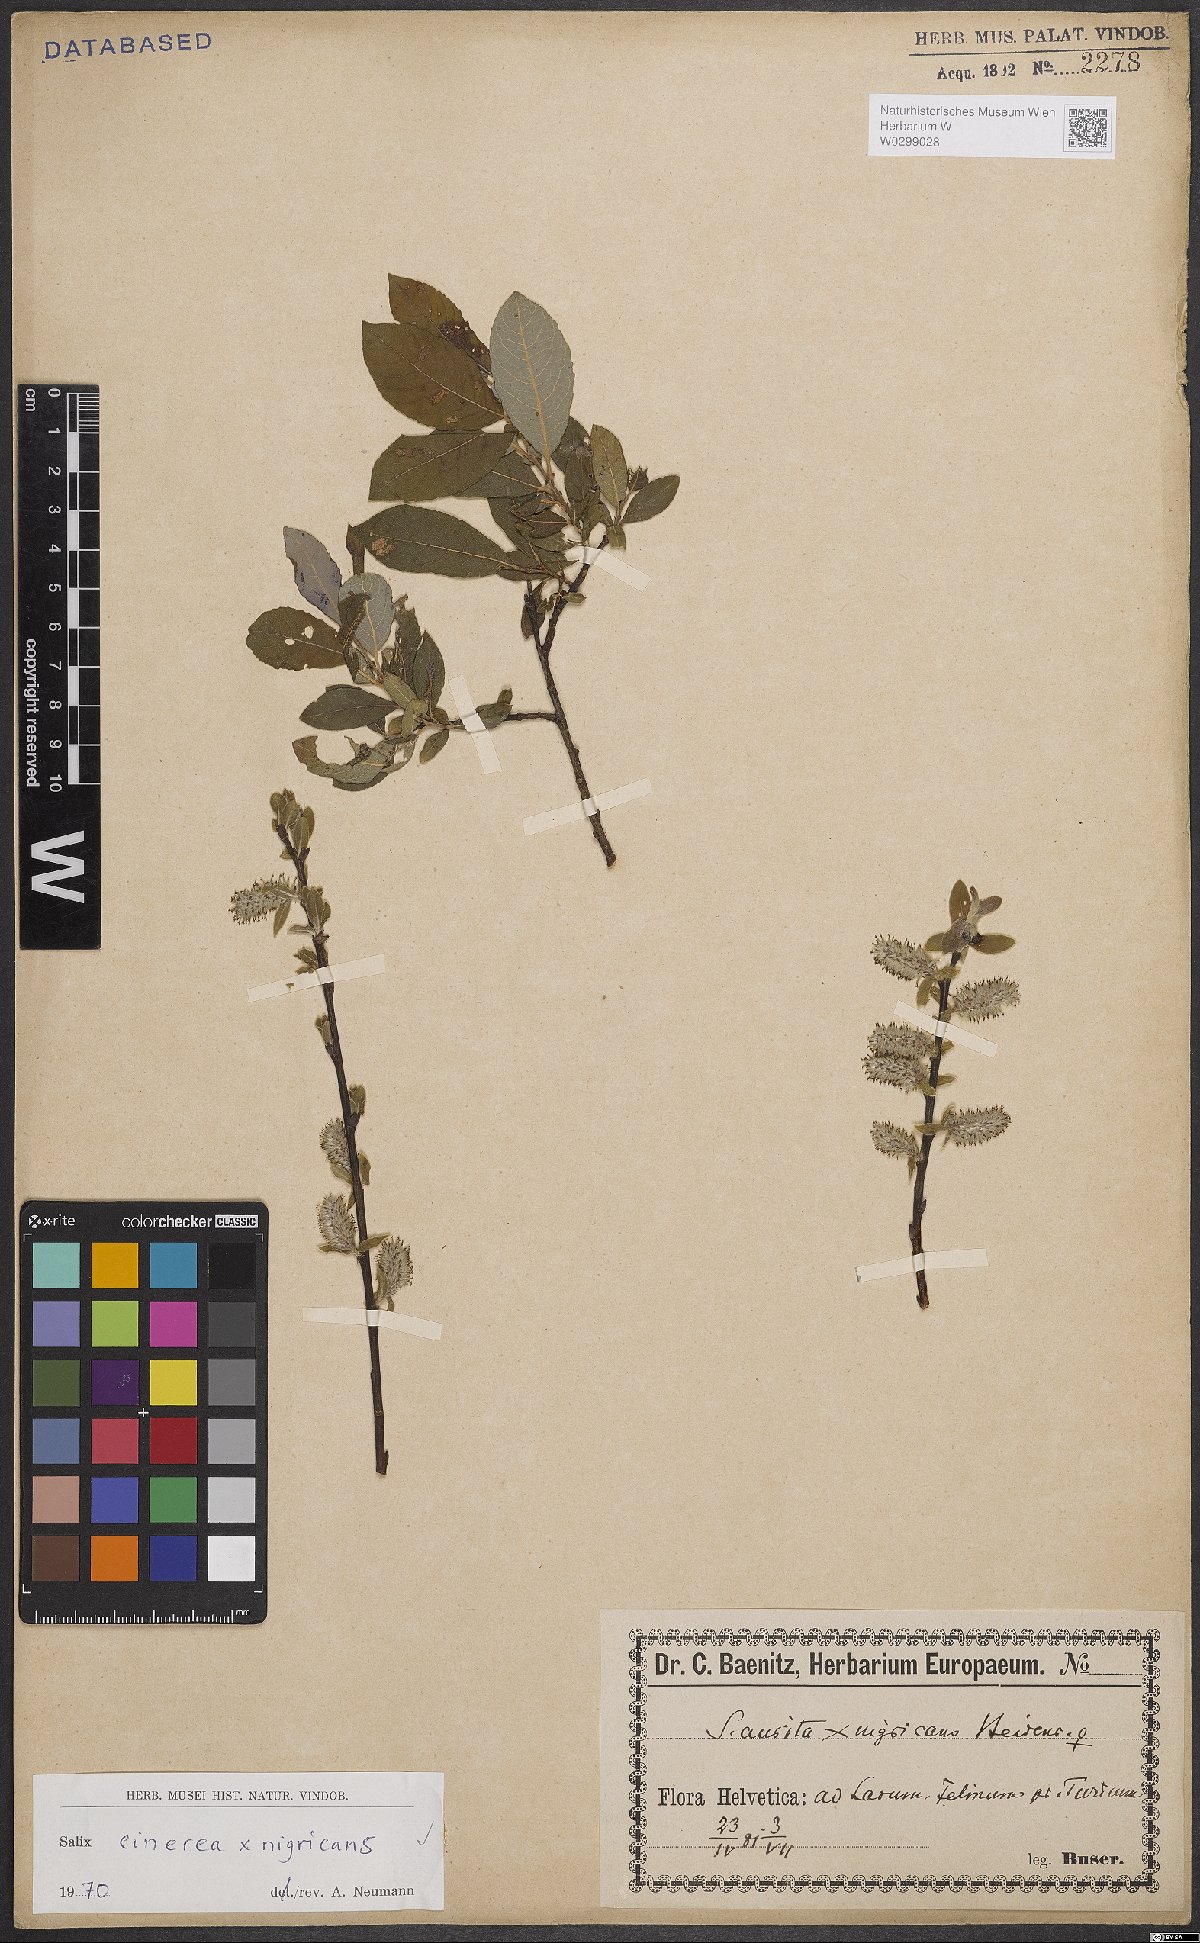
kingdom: Plantae
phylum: Tracheophyta
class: Magnoliopsida
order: Malpighiales
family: Salicaceae
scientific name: Salicaceae
